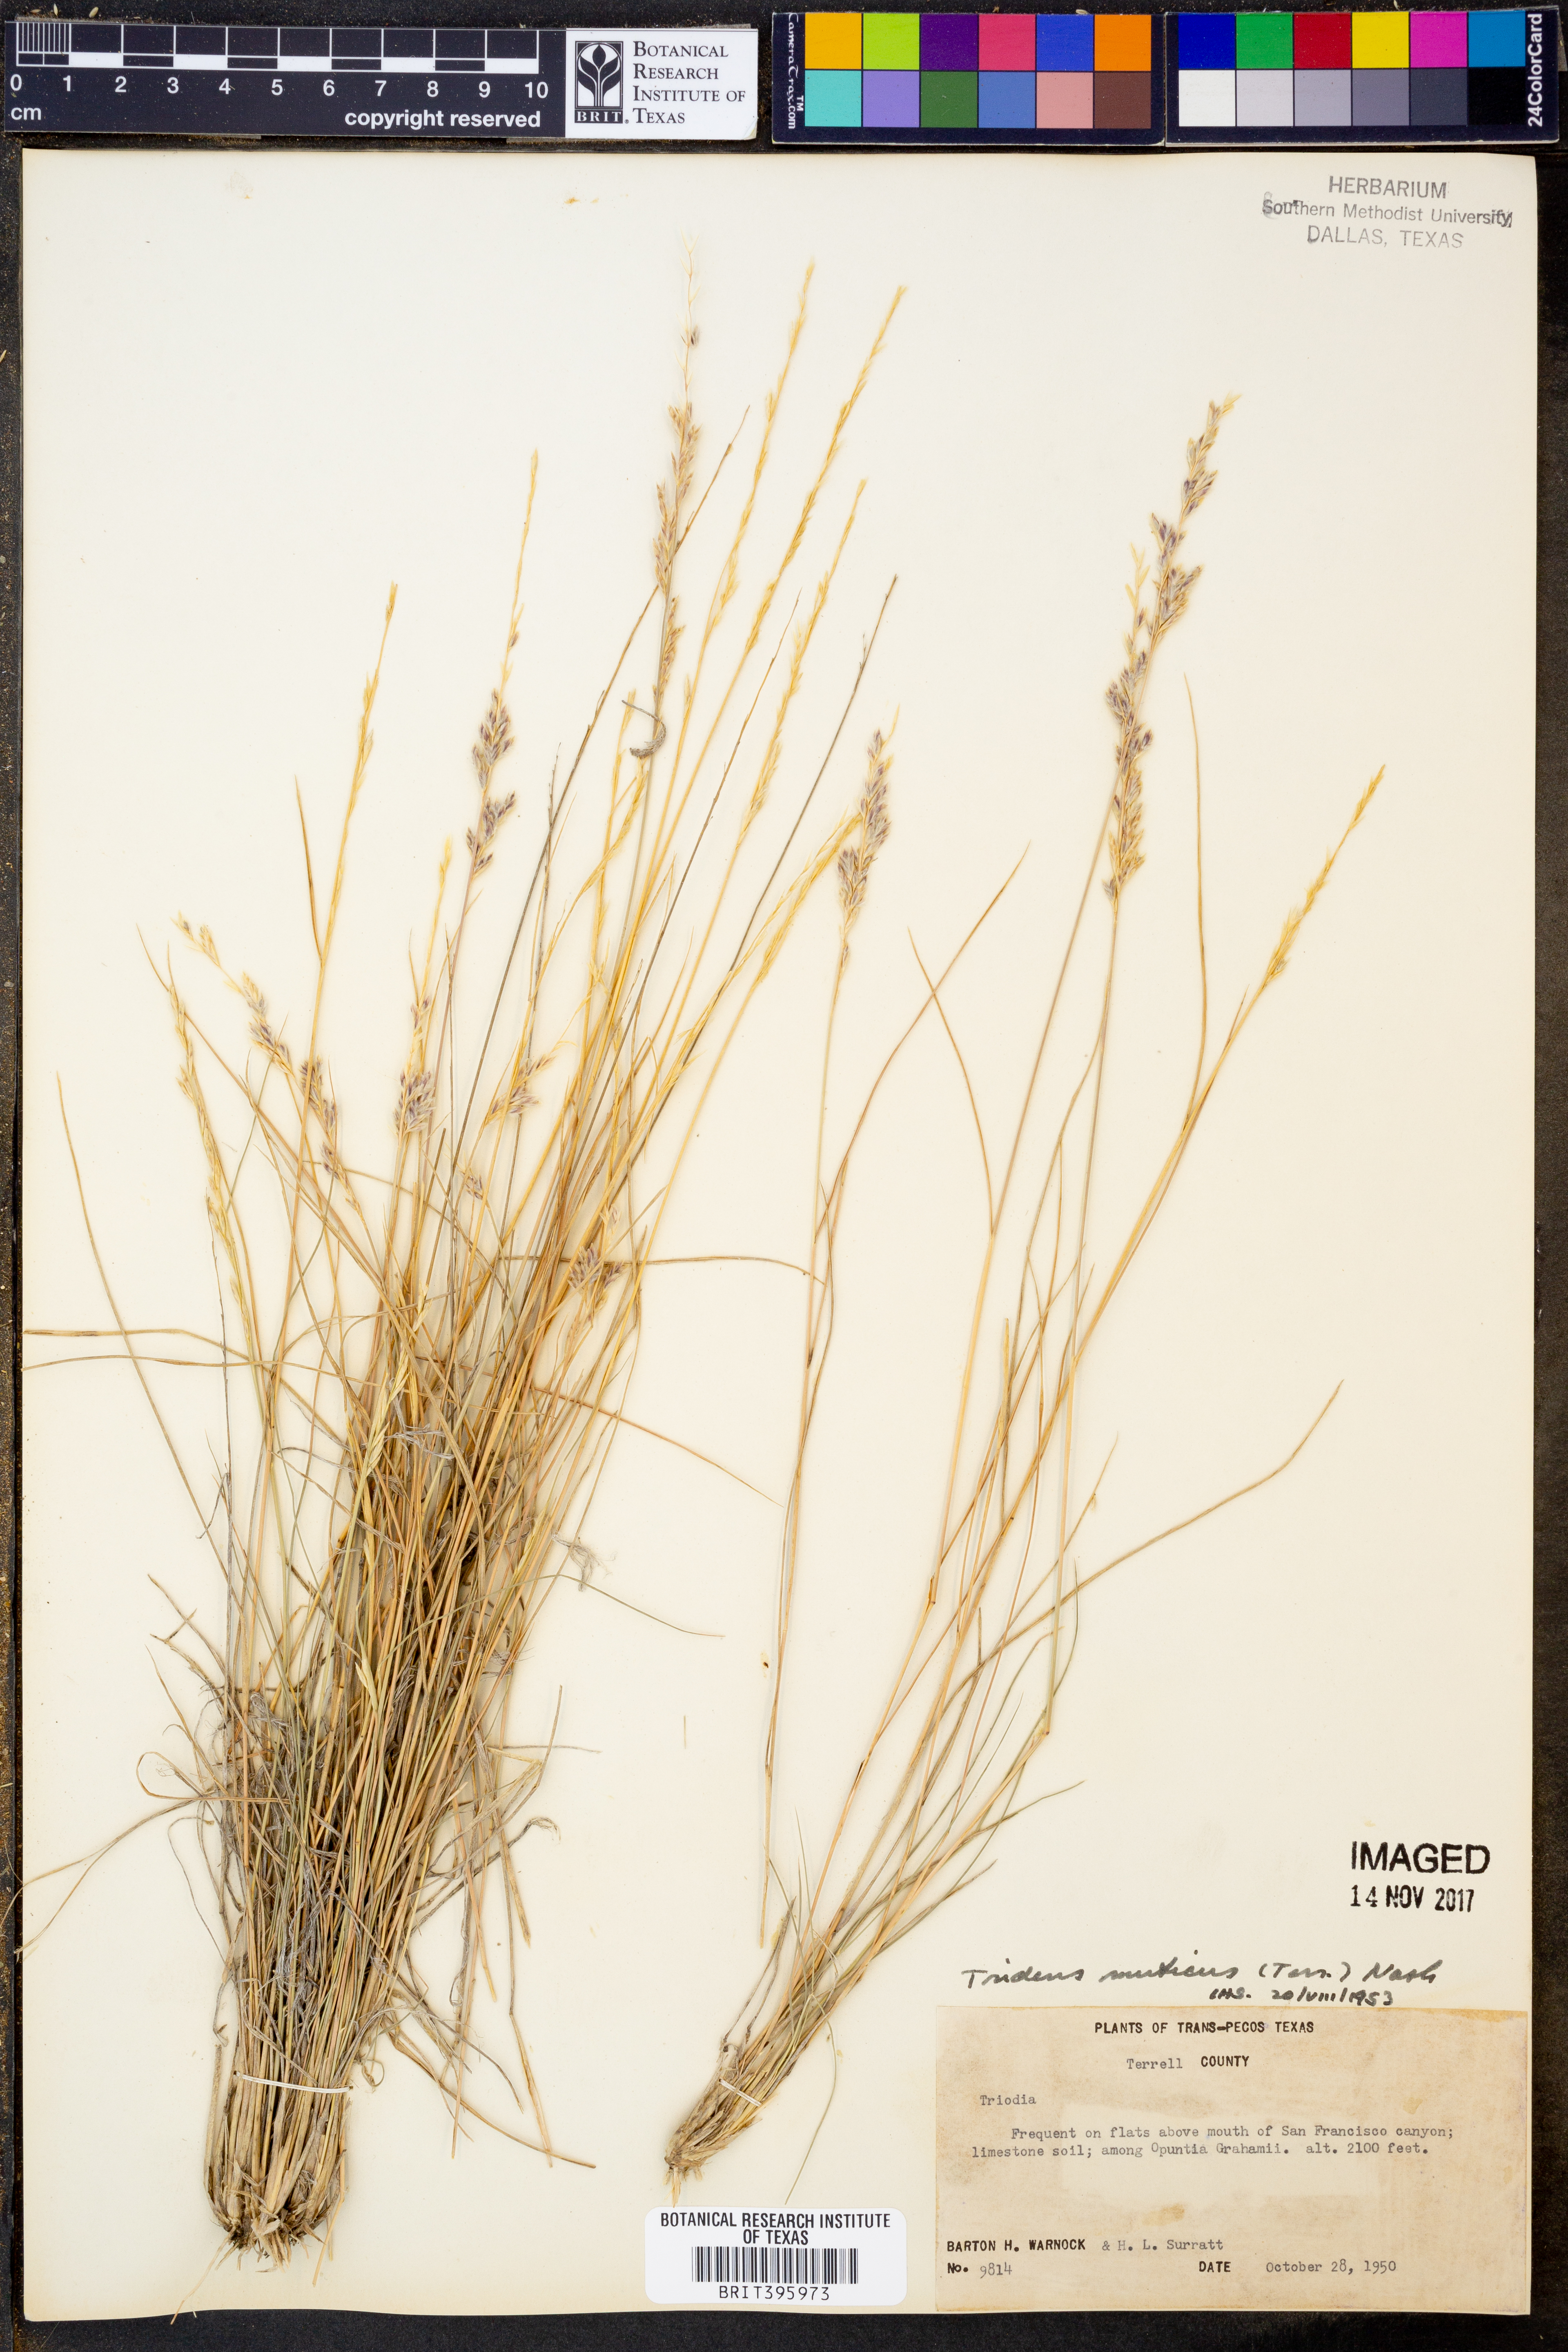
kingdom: Plantae
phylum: Tracheophyta
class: Liliopsida
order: Poales
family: Poaceae
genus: Tridentopsis
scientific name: Tridentopsis mutica
